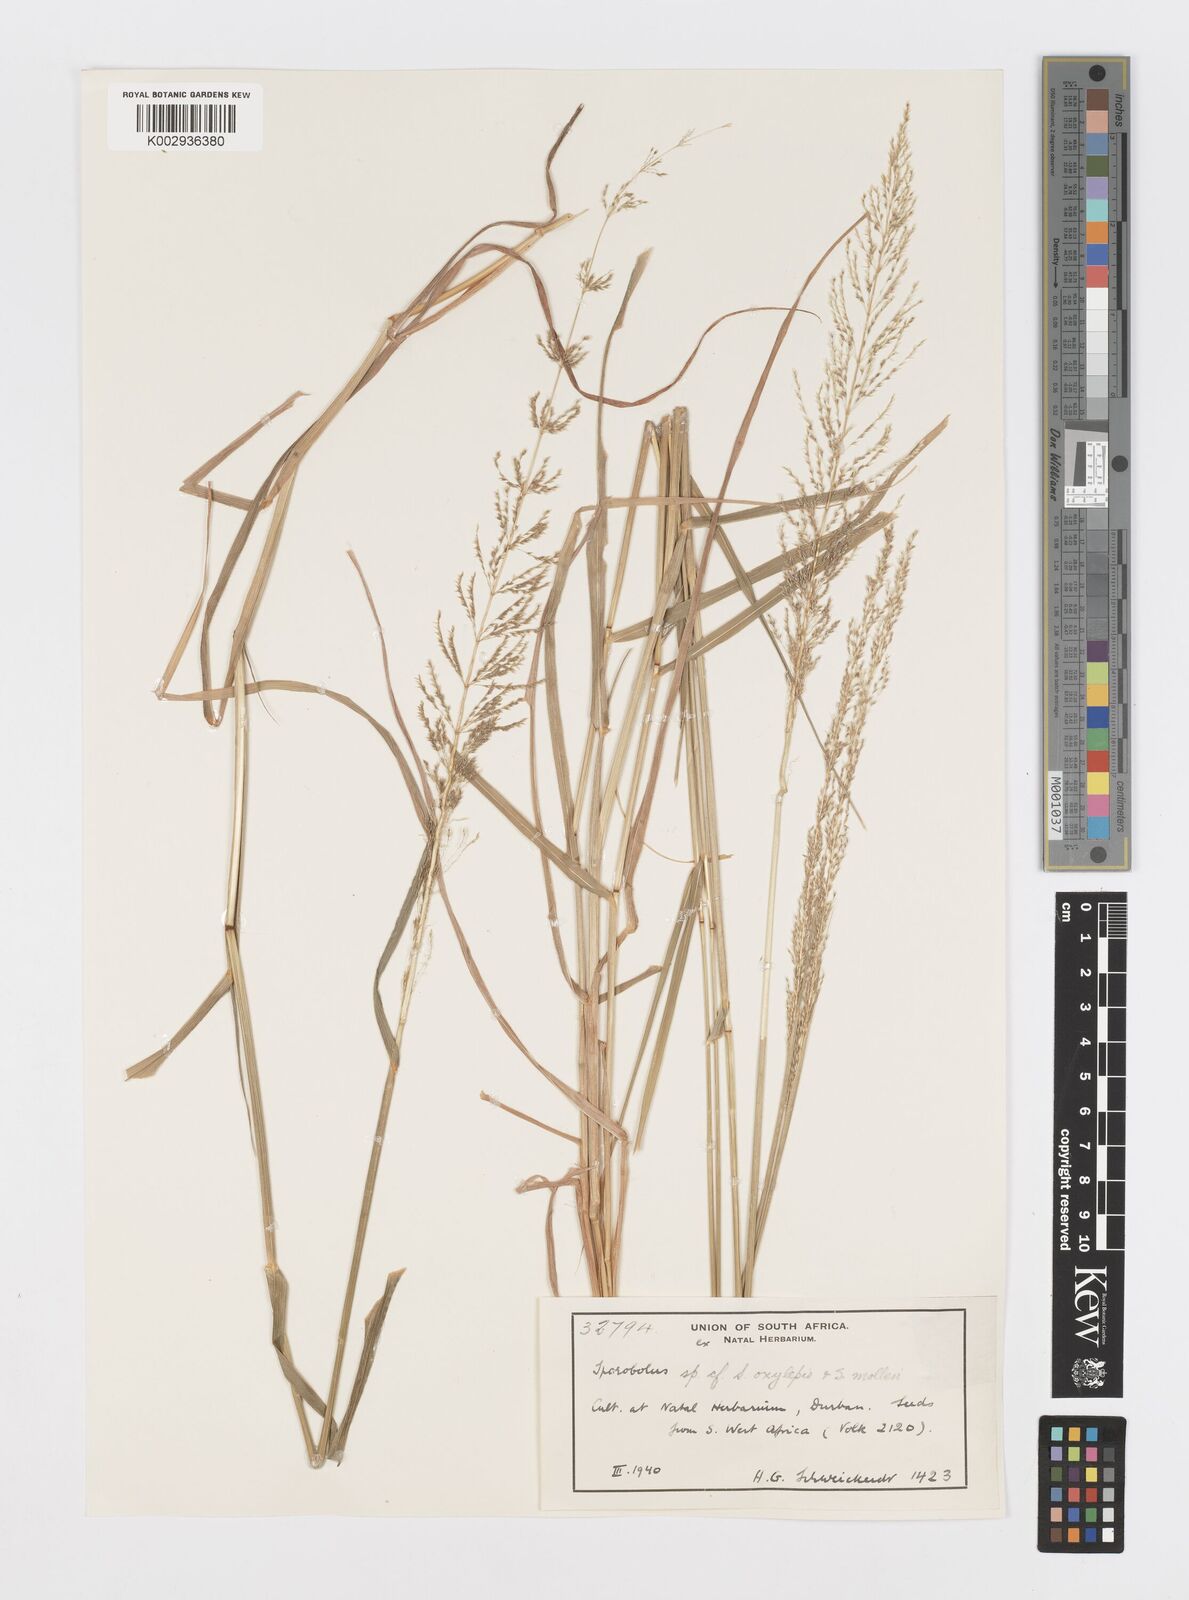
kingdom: Plantae
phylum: Tracheophyta
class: Liliopsida
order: Poales
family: Poaceae
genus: Sporobolus
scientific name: Sporobolus sanguineus
